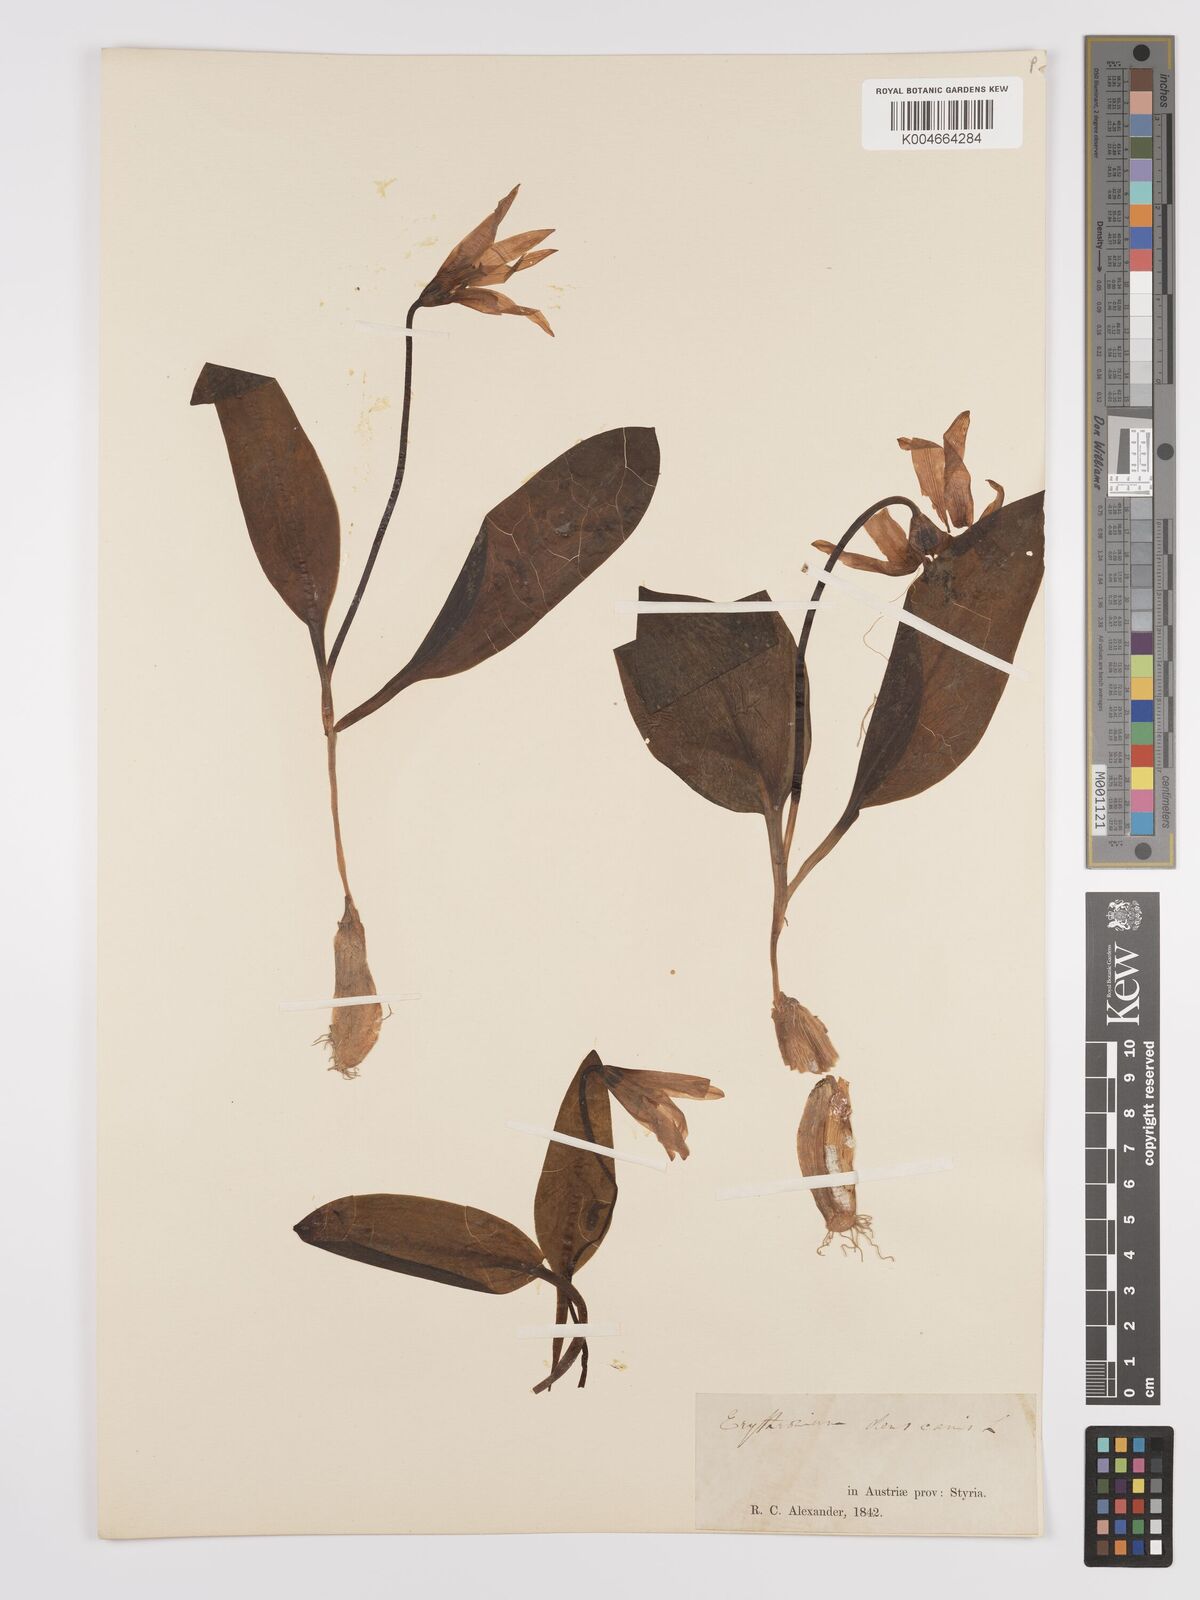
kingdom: Plantae
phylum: Tracheophyta
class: Liliopsida
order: Liliales
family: Liliaceae
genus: Erythronium
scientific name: Erythronium dens-canis
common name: Dog's-tooth-violet
